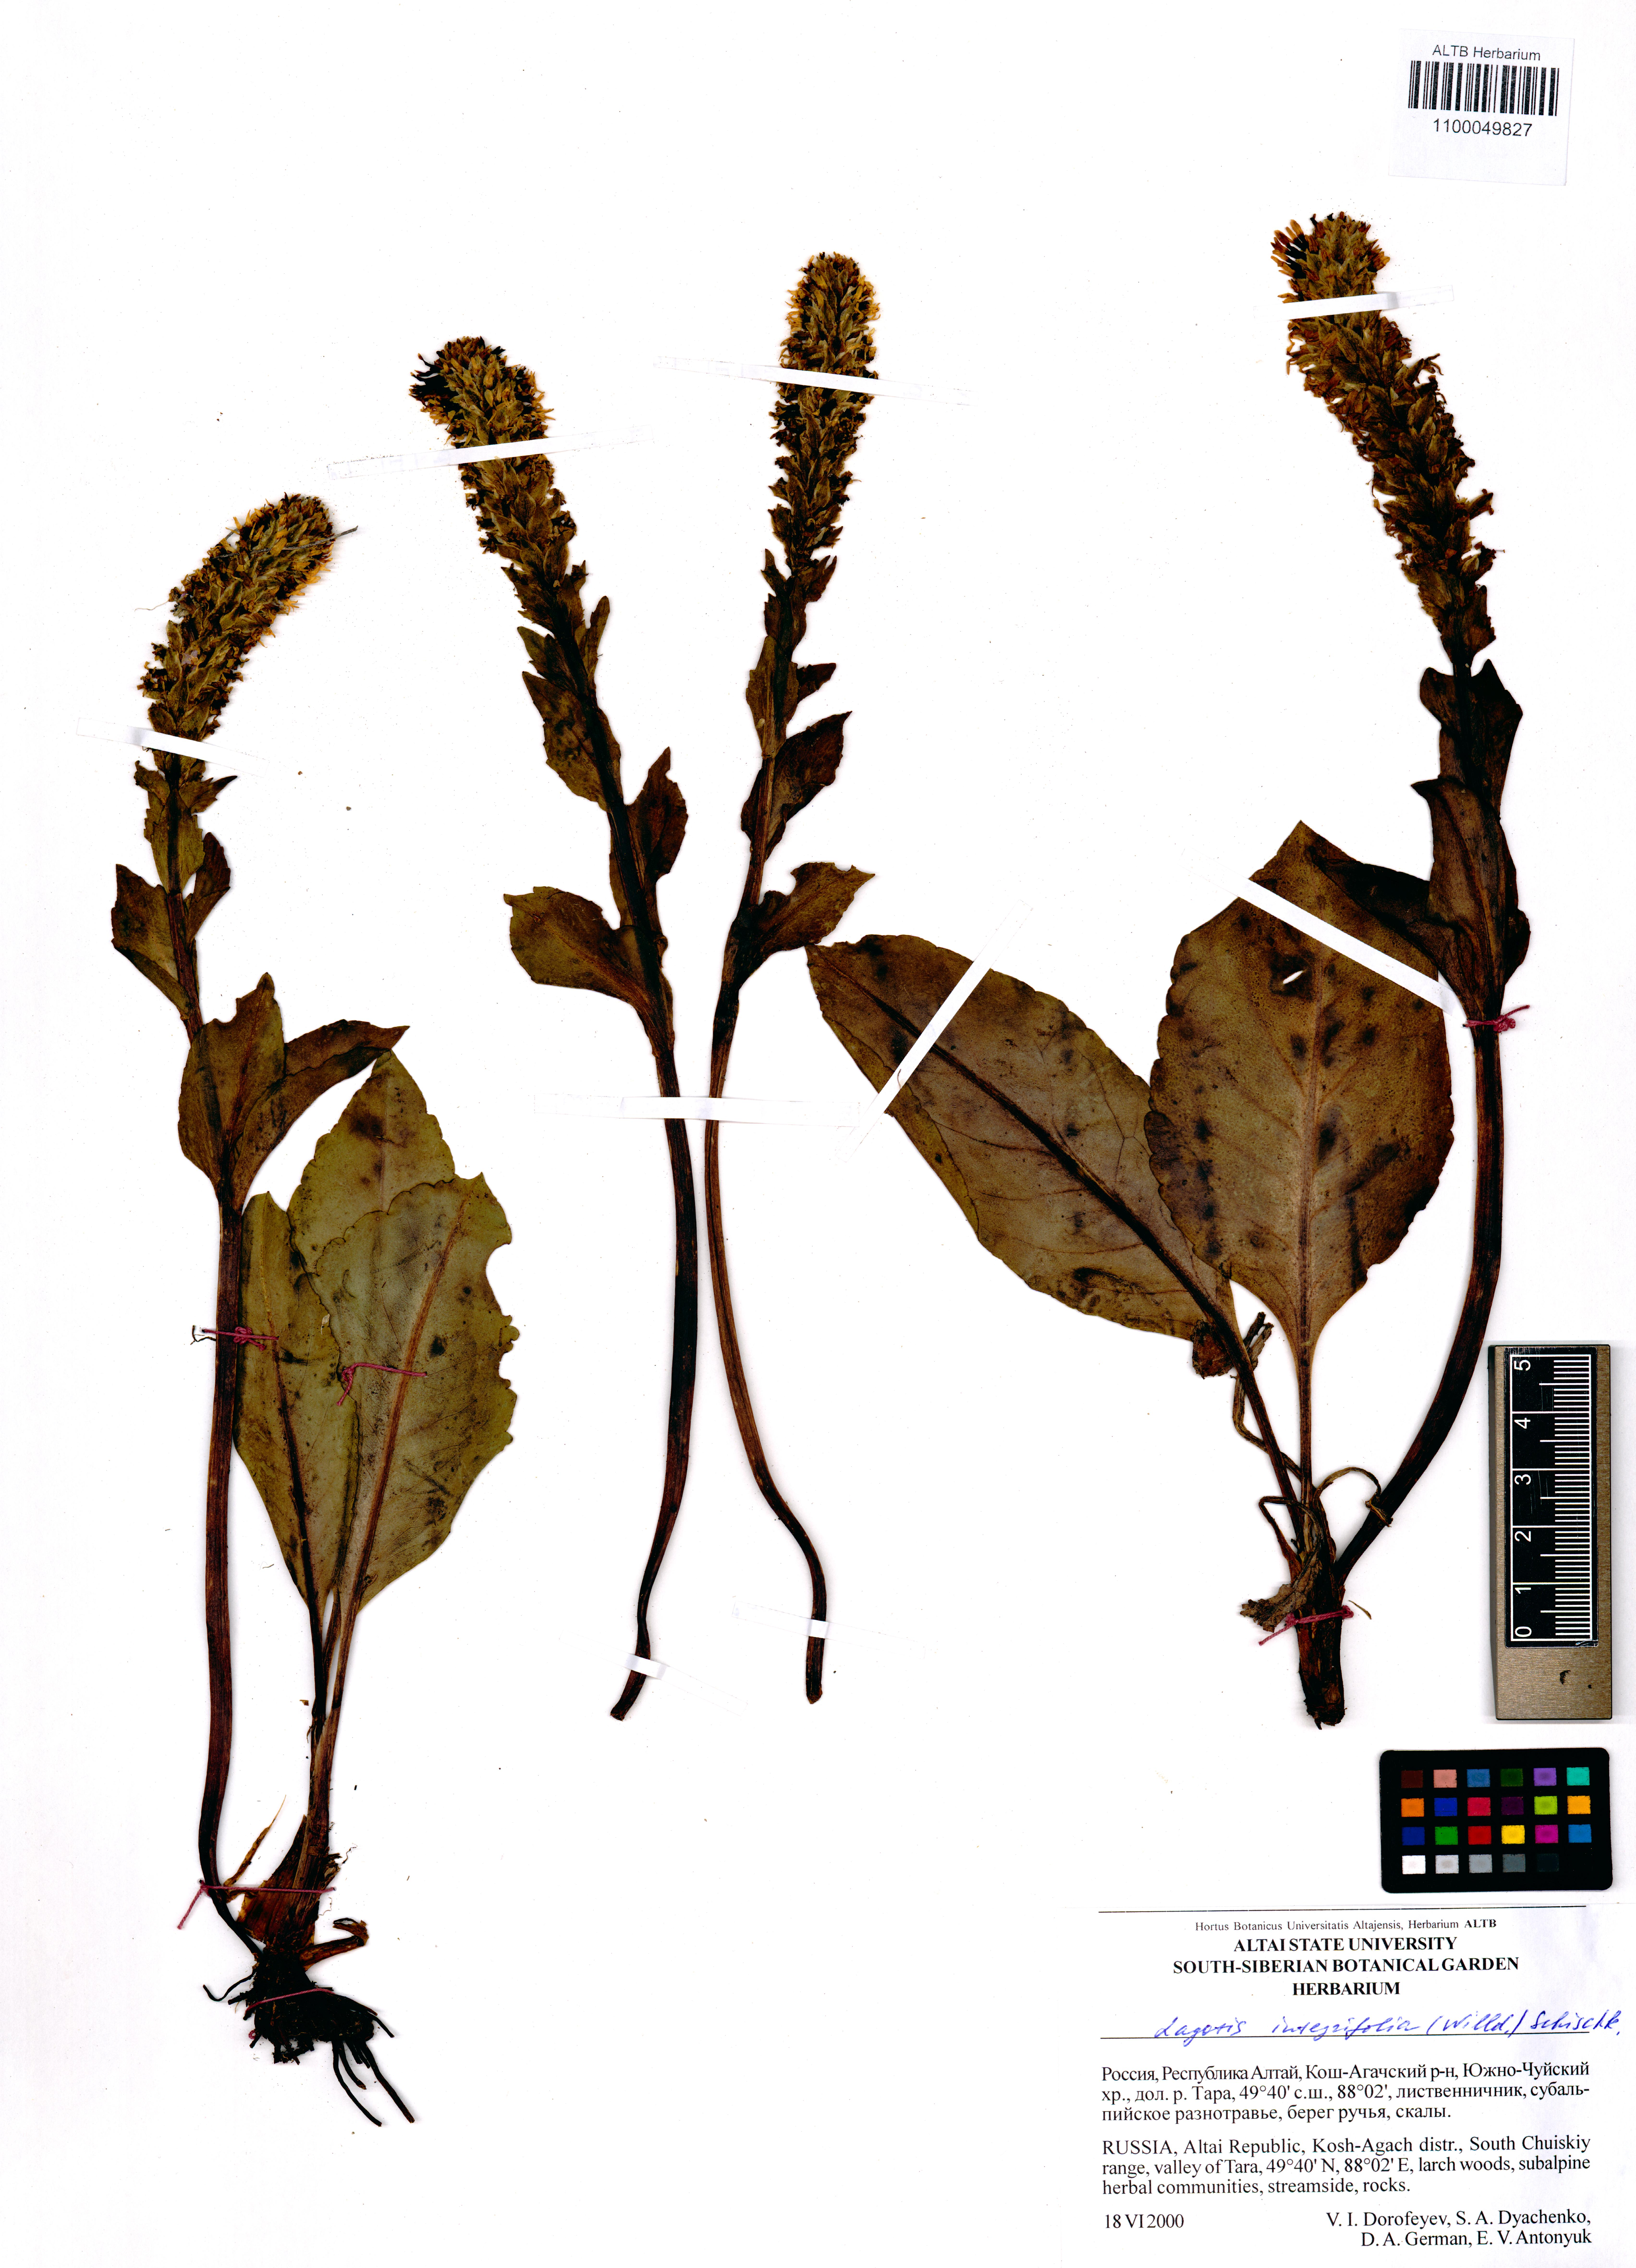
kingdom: Plantae
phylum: Tracheophyta
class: Magnoliopsida
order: Lamiales
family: Plantaginaceae
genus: Lagotis
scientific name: Lagotis integrifolia
